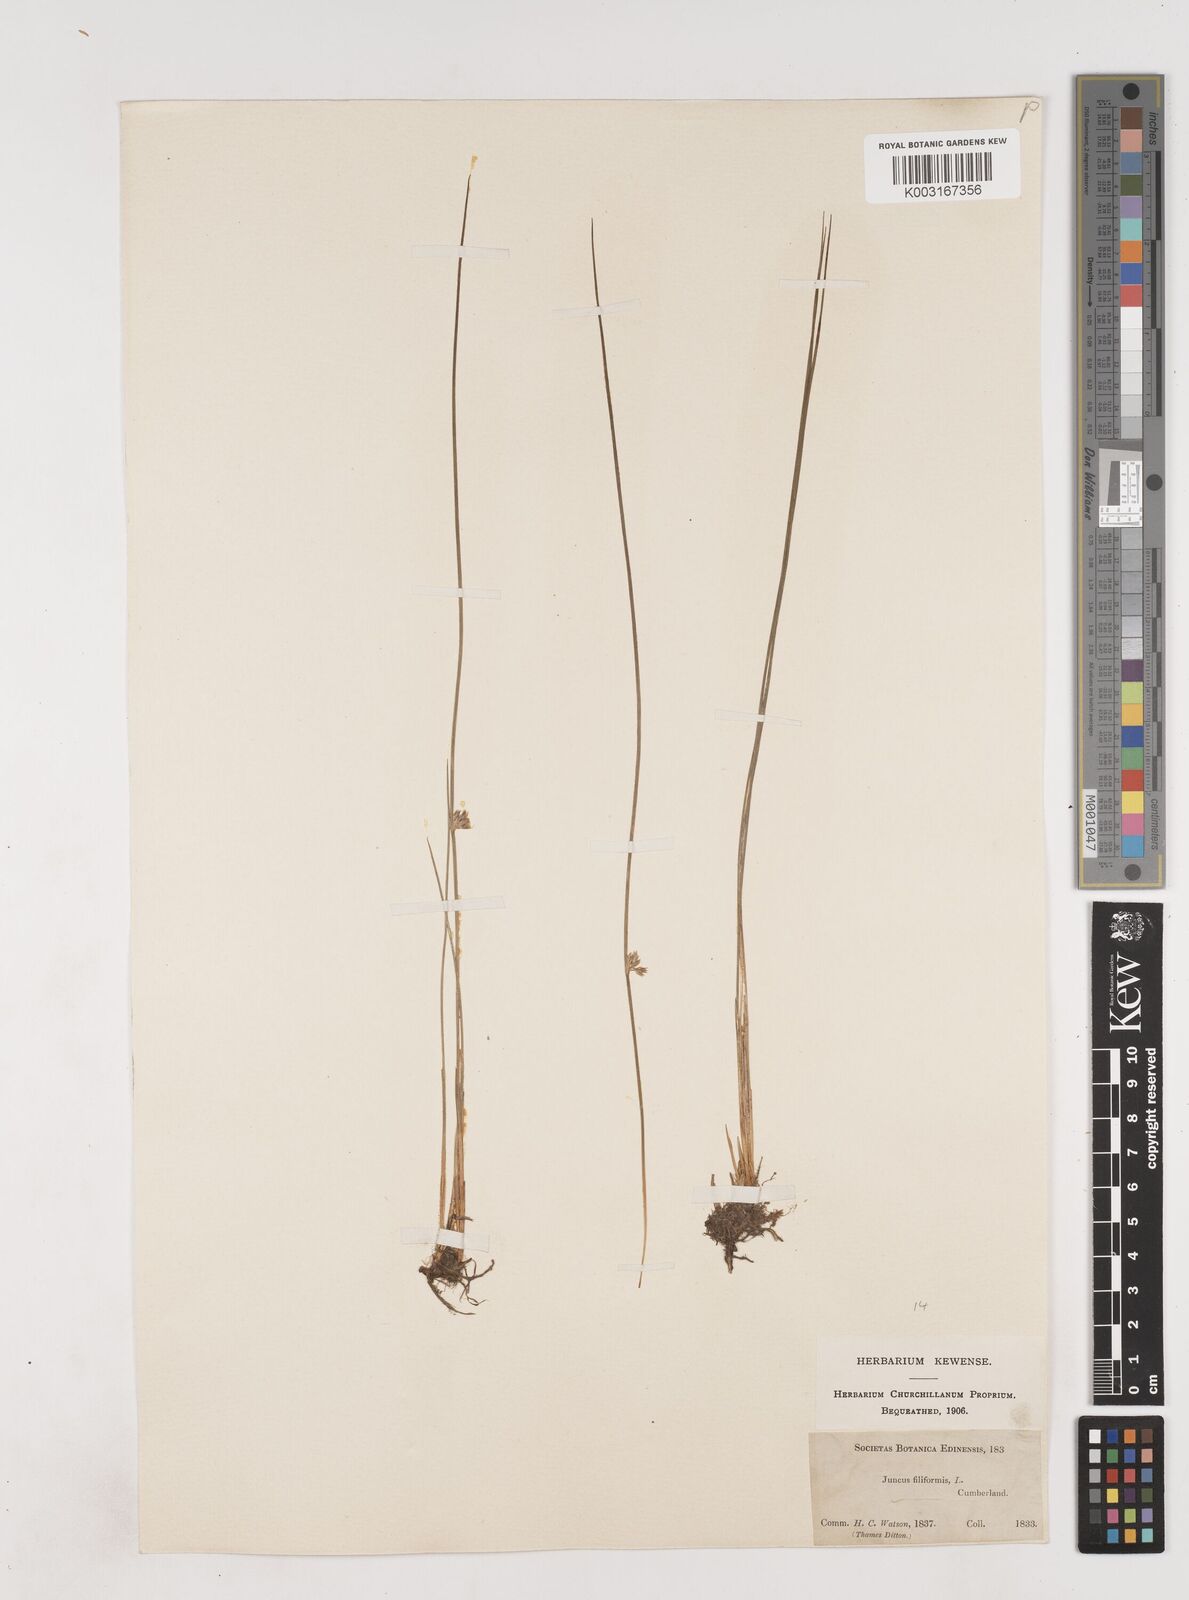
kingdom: Plantae
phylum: Tracheophyta
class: Liliopsida
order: Poales
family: Juncaceae
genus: Juncus
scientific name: Juncus filiformis
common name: Thread rush
